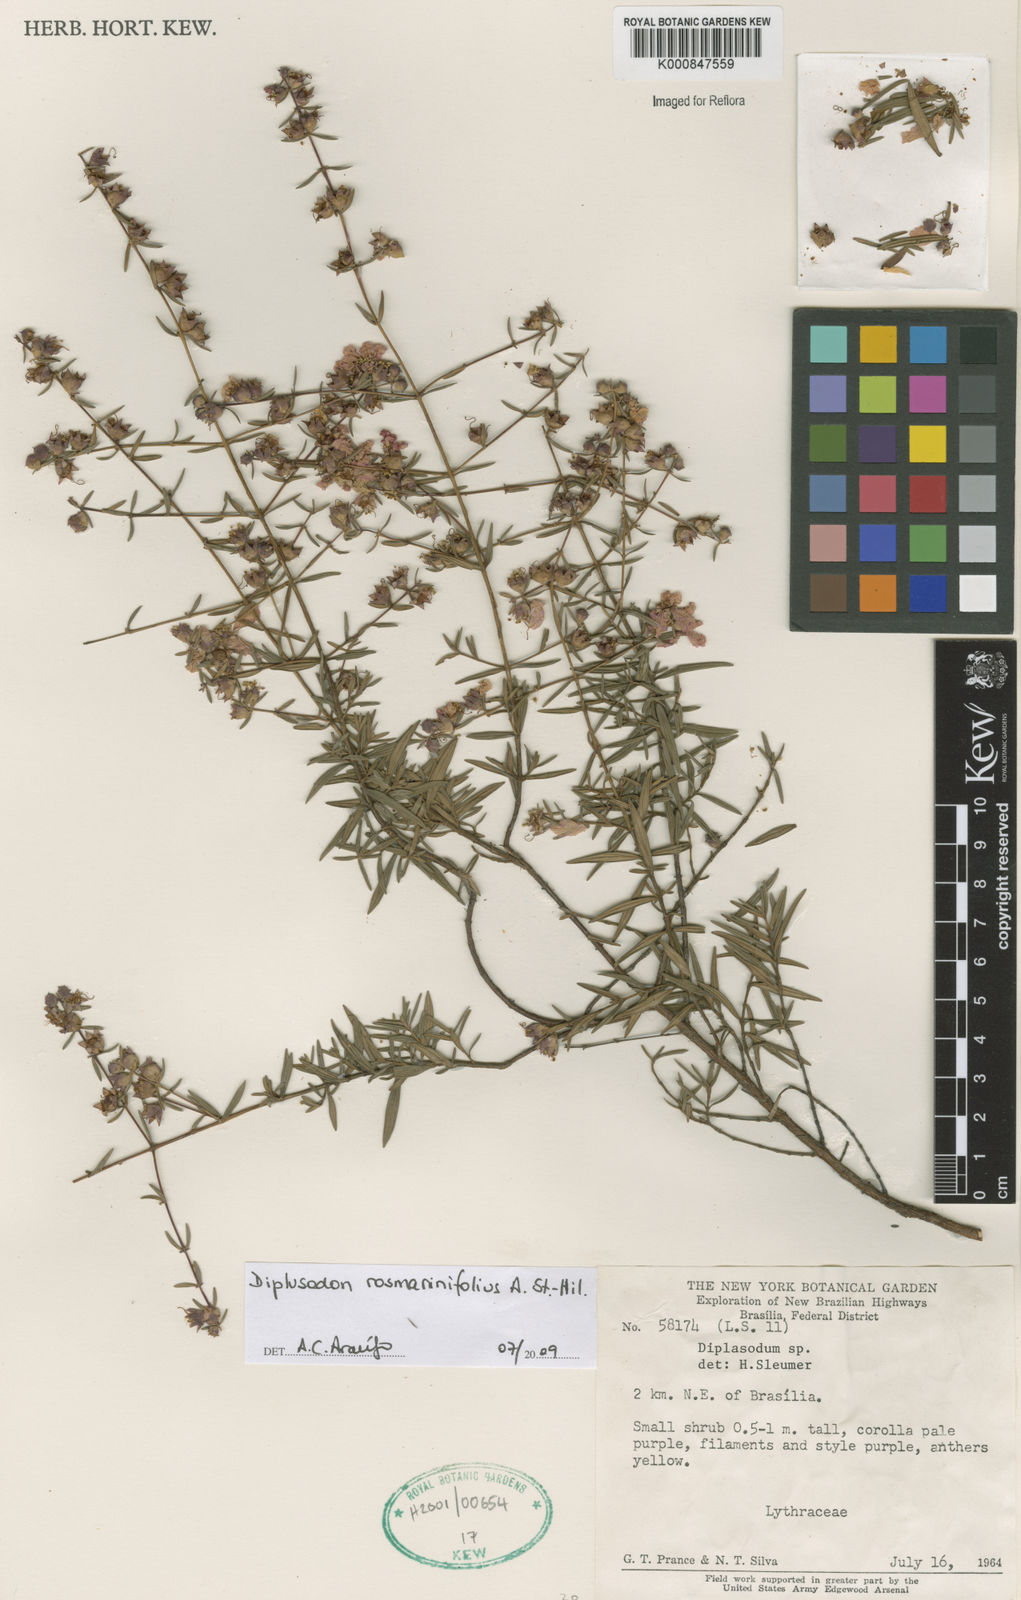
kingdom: Plantae
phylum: Tracheophyta
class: Magnoliopsida
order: Myrtales
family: Lythraceae
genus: Diplusodon
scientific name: Diplusodon rosmarinifolius
